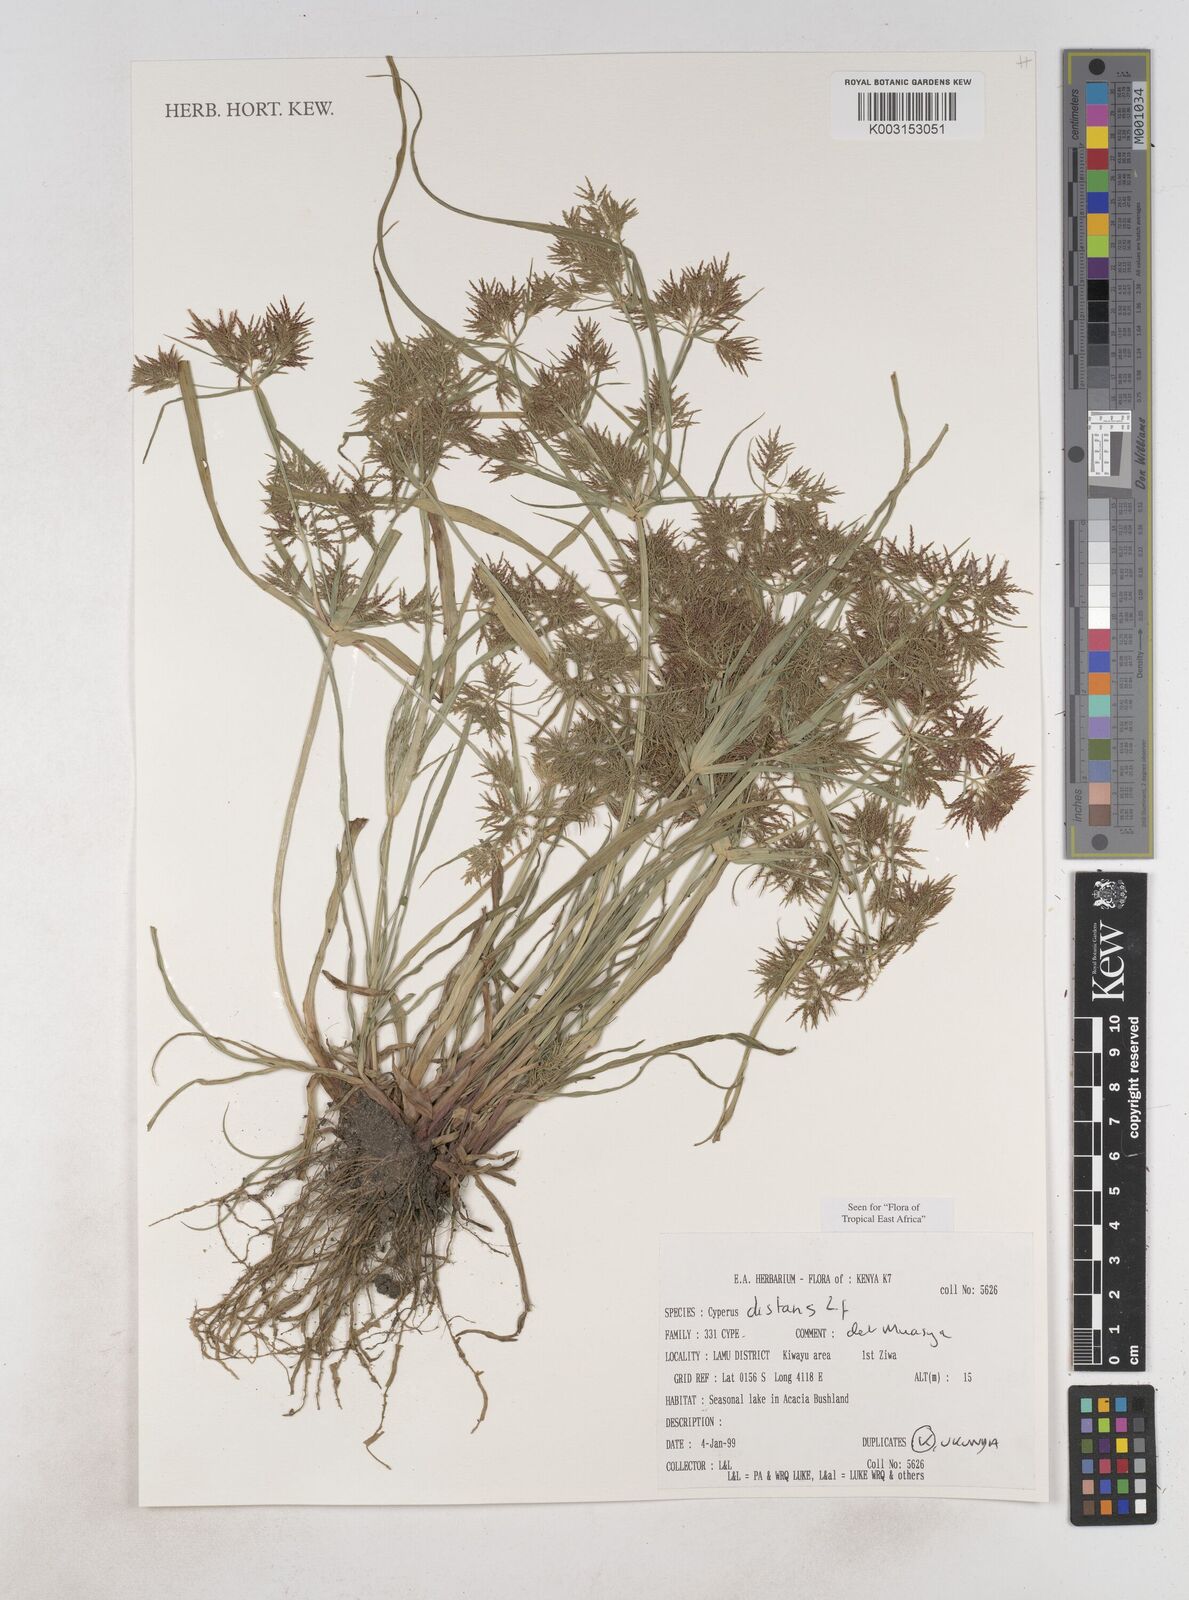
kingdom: Plantae
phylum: Tracheophyta
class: Liliopsida
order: Poales
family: Cyperaceae
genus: Cyperus
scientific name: Cyperus distans
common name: Slender cyperus
